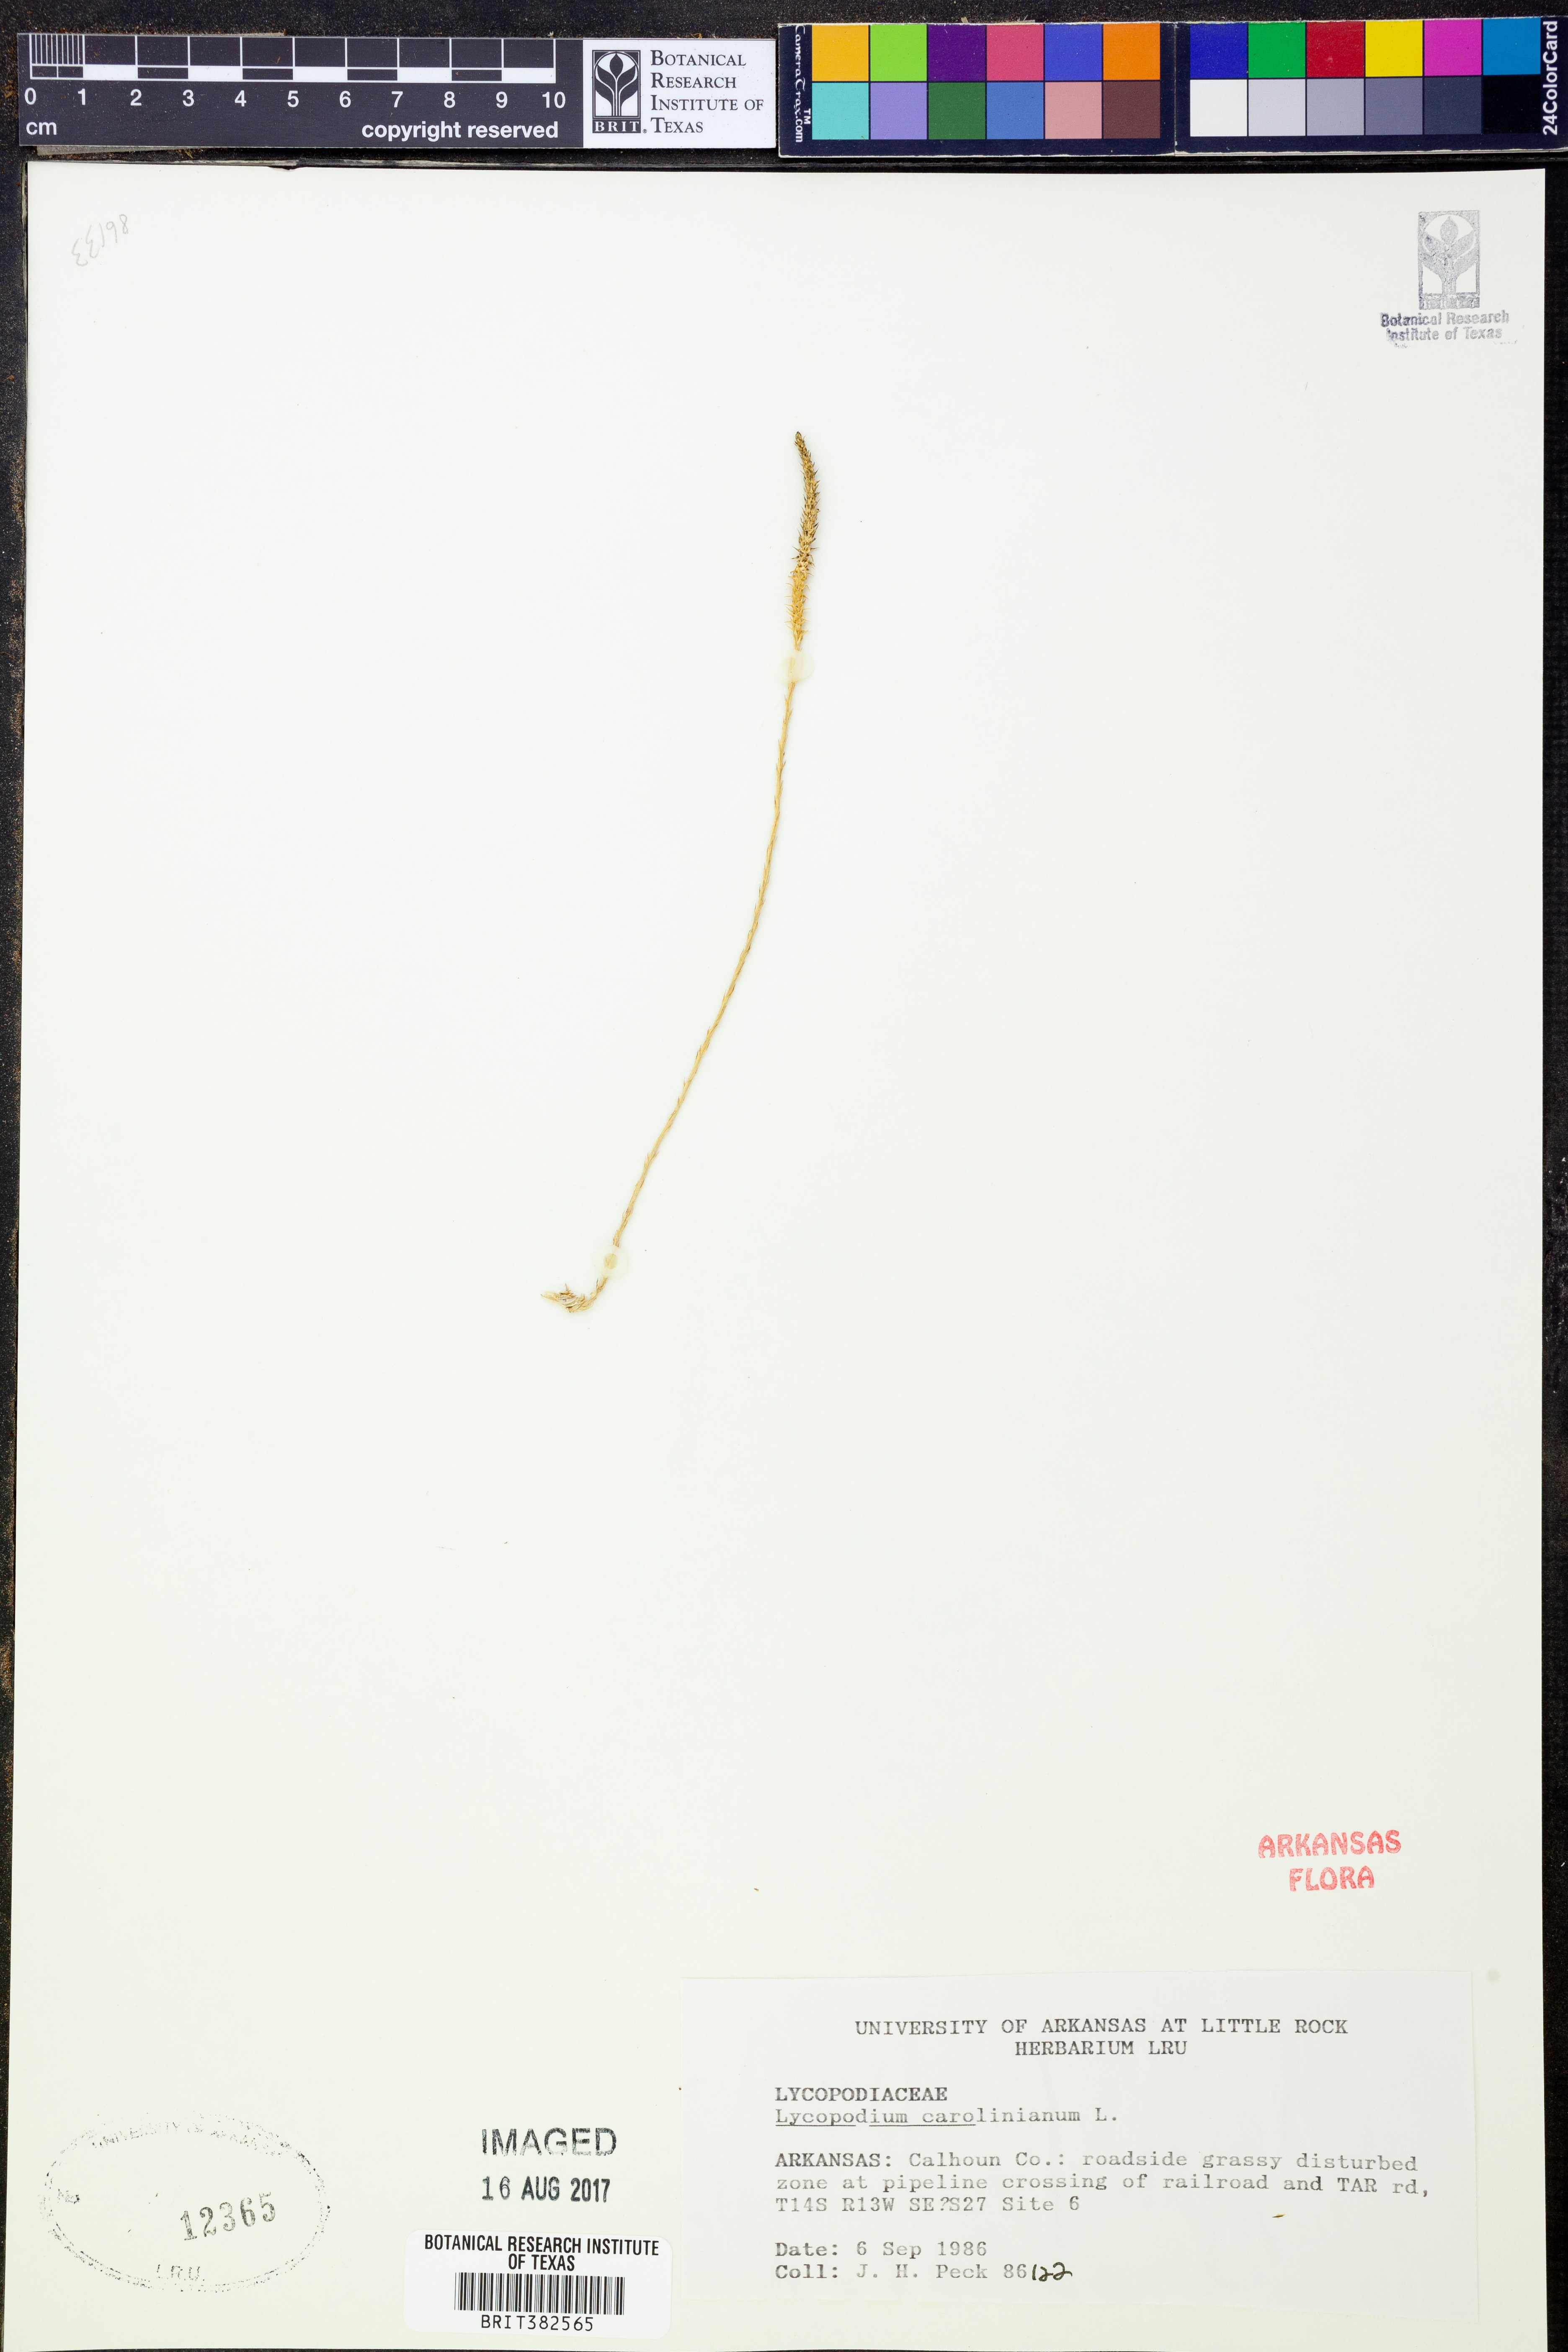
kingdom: Plantae
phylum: Tracheophyta
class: Lycopodiopsida
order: Lycopodiales
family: Lycopodiaceae
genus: Pseudolycopodiella
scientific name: Pseudolycopodiella caroliniana
